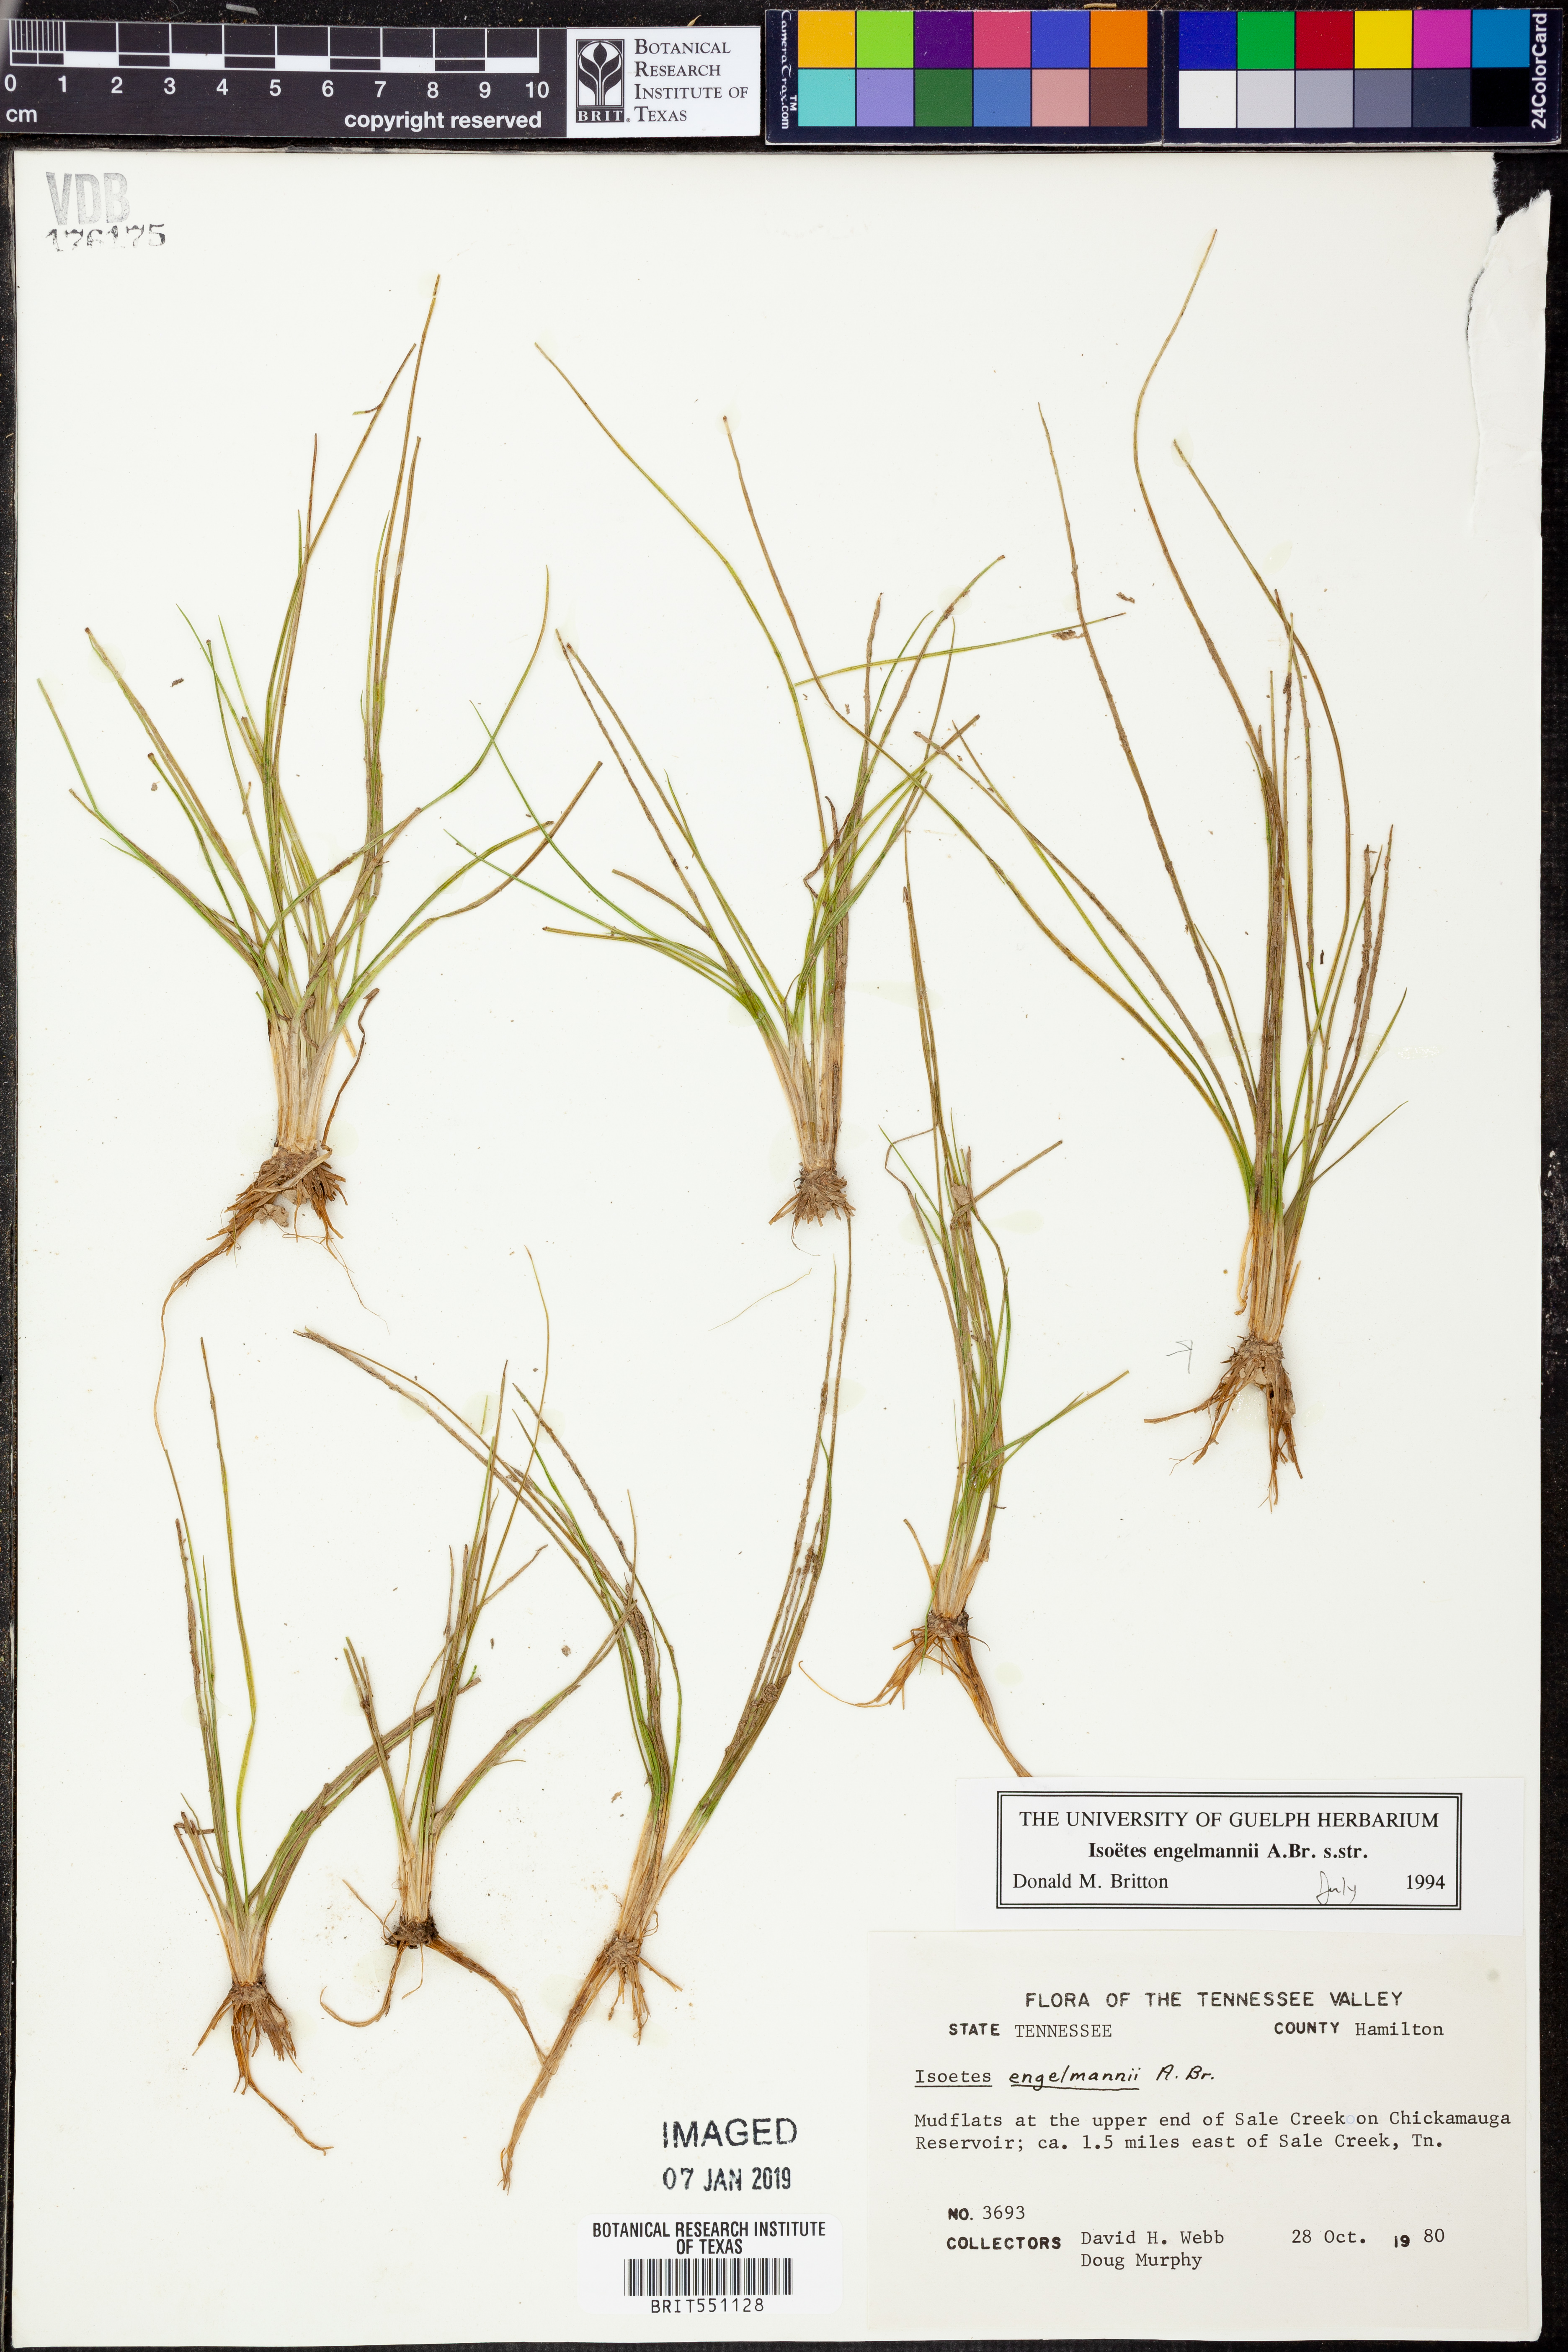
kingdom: Plantae
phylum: Tracheophyta
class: Lycopodiopsida
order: Isoetales
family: Isoetaceae
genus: Isoetes
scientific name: Isoetes engelmannii
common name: Engelmann's quillwort
